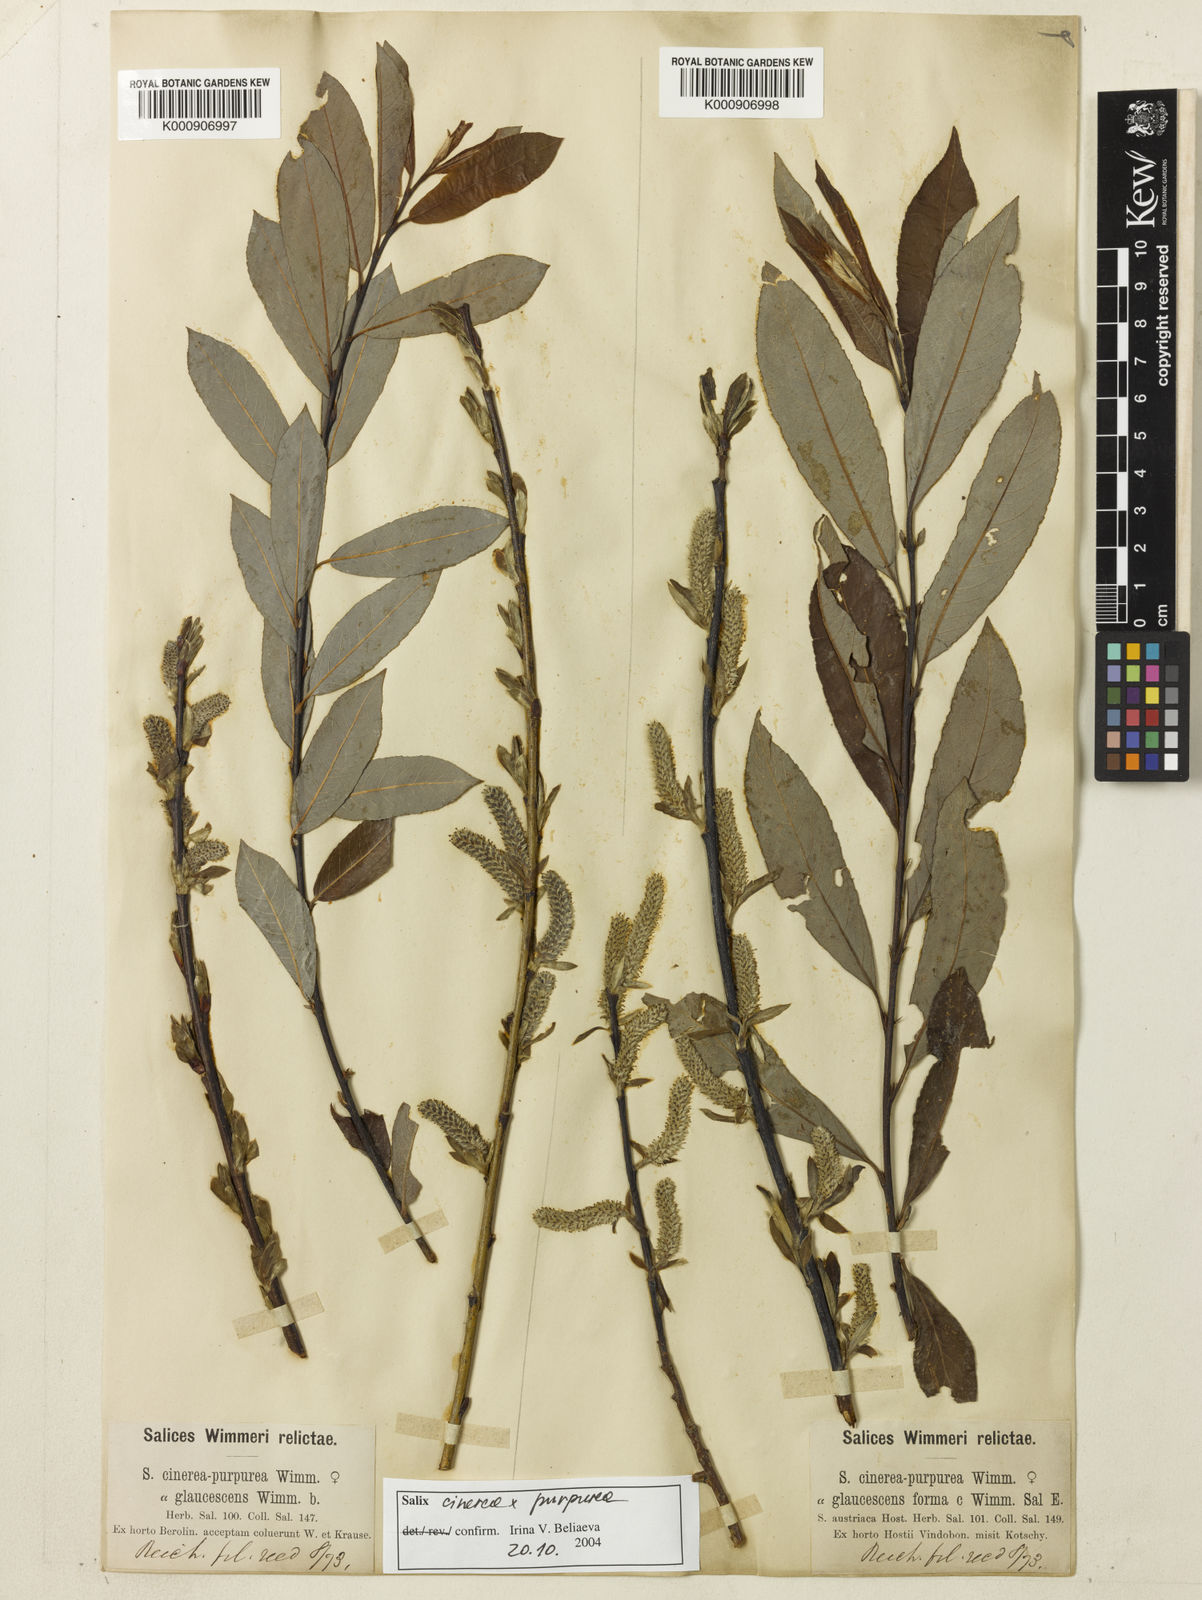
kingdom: Plantae
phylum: Tracheophyta
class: Magnoliopsida
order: Malpighiales
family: Salicaceae
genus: Salix
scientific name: Salix cinerea
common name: Common sallow
